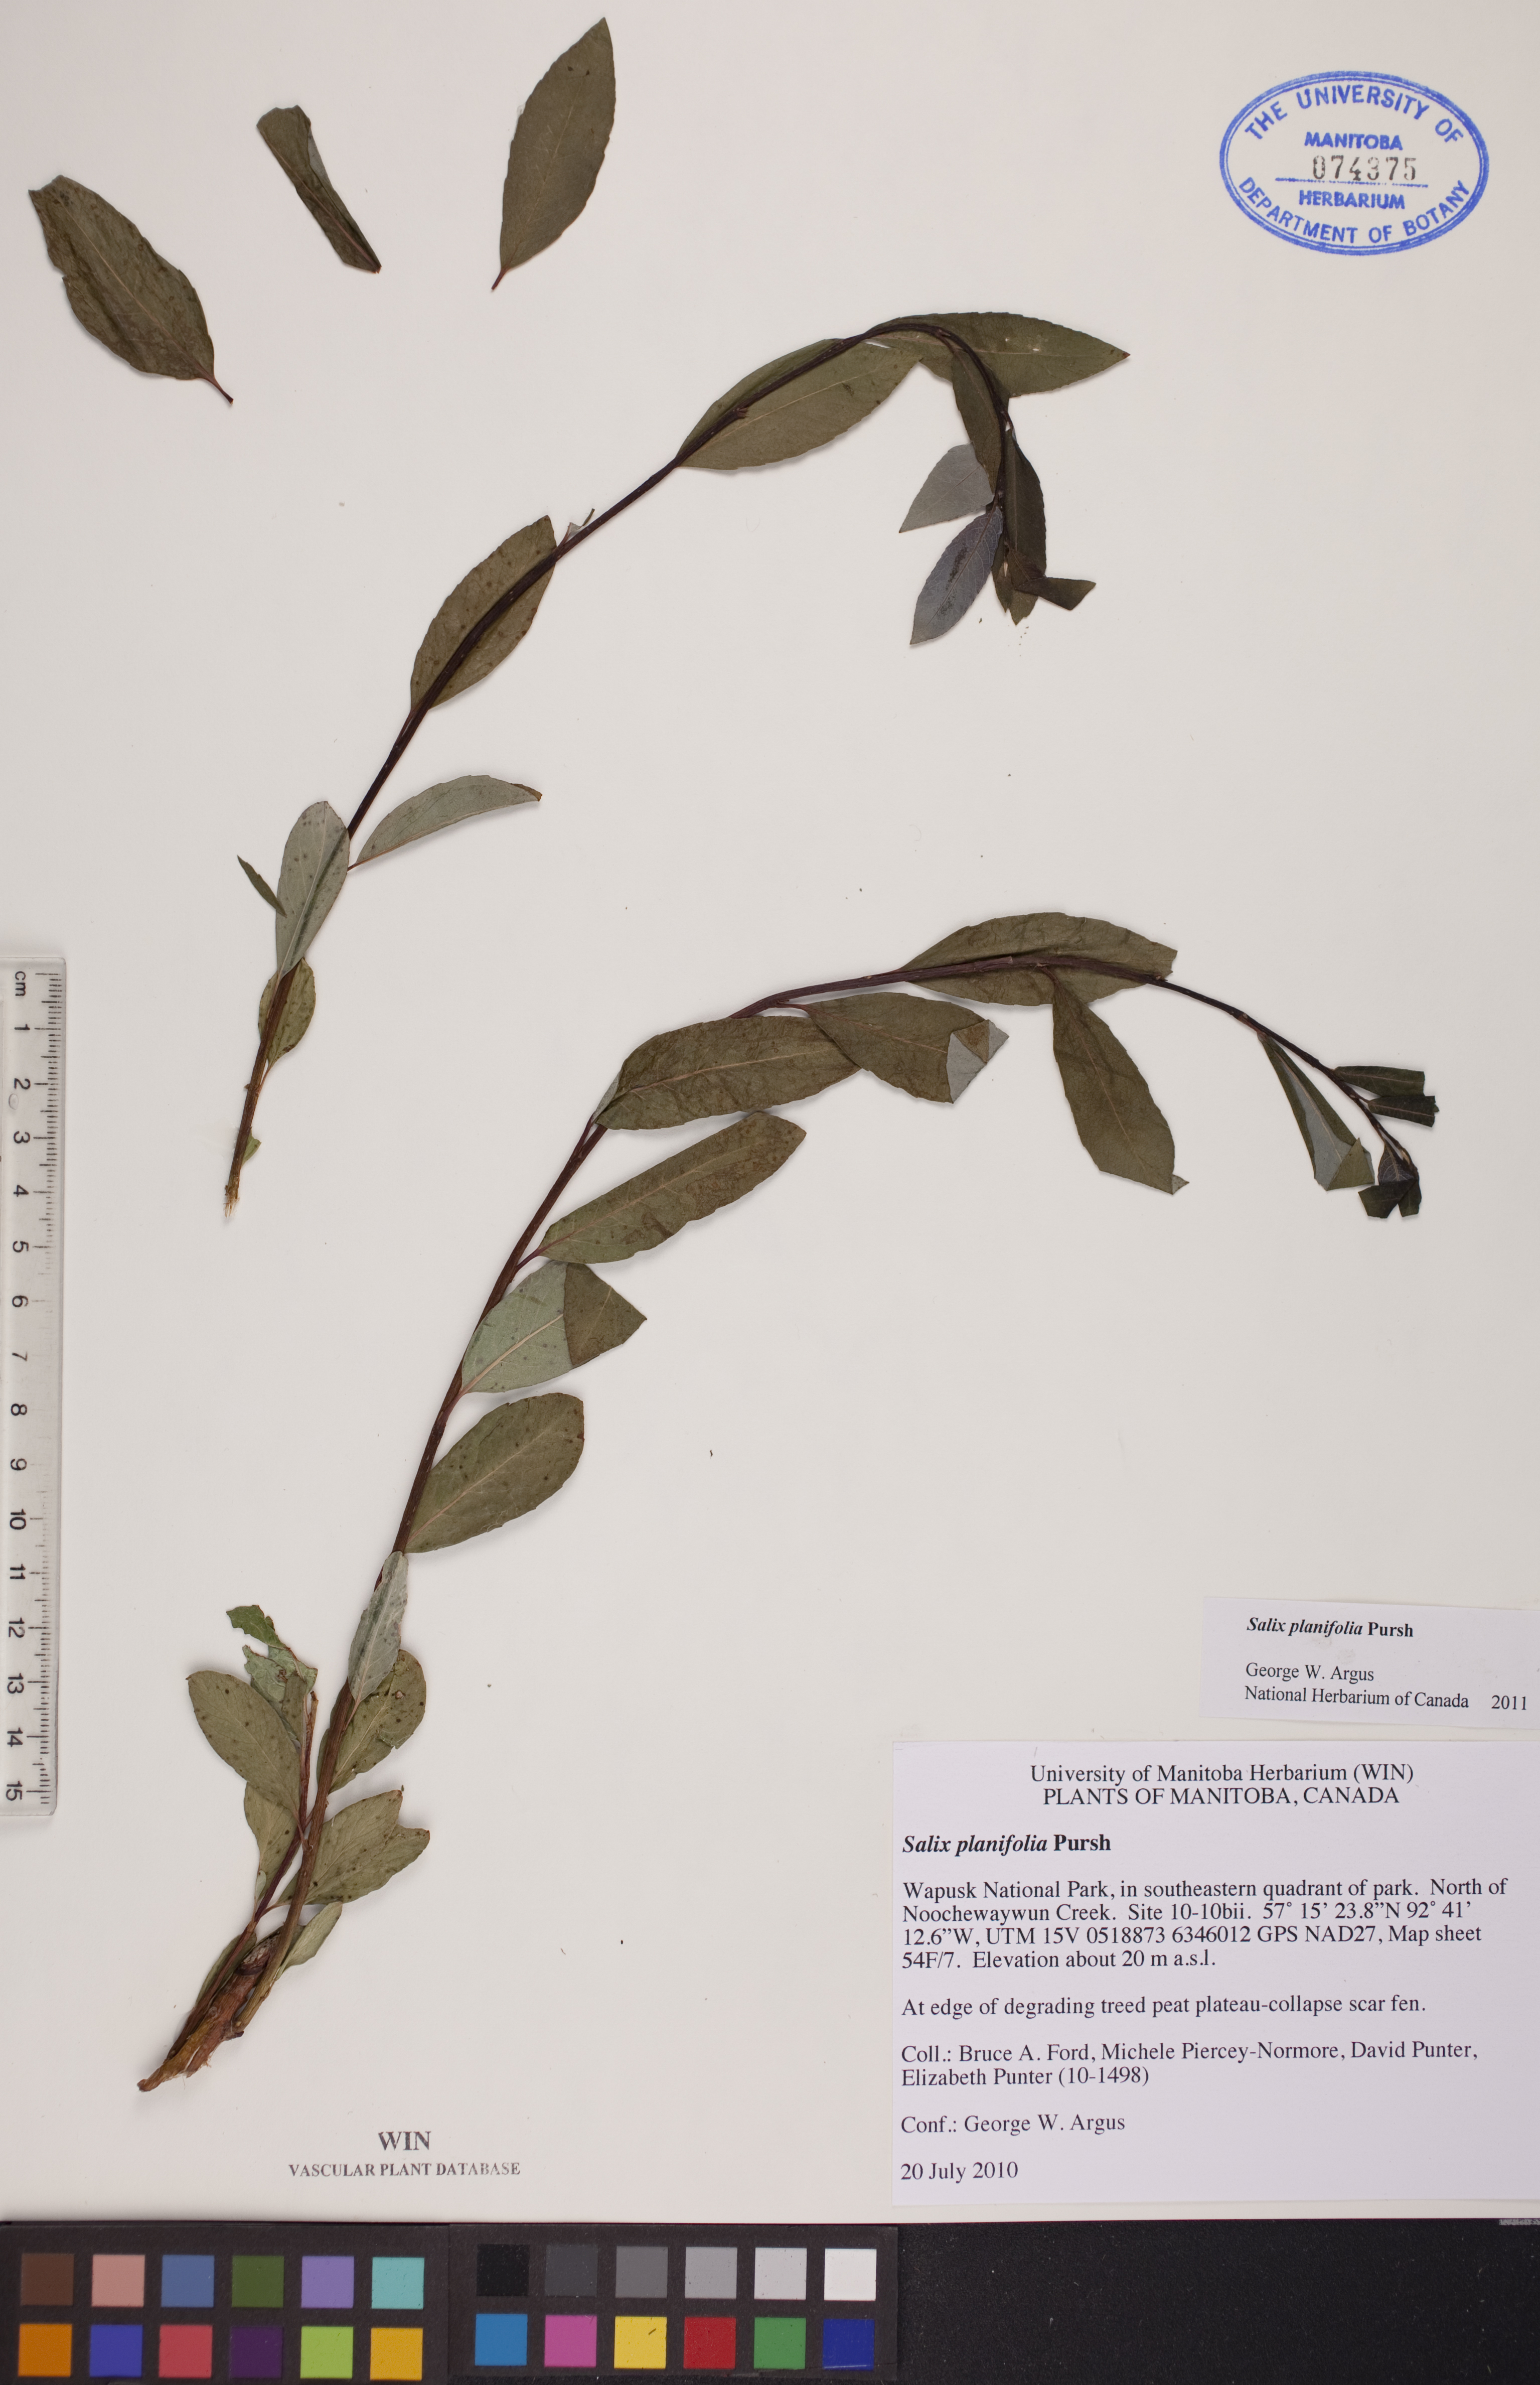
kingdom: Plantae
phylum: Tracheophyta
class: Magnoliopsida
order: Malpighiales
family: Salicaceae
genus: Salix
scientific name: Salix planifolia
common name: Mountain willow
